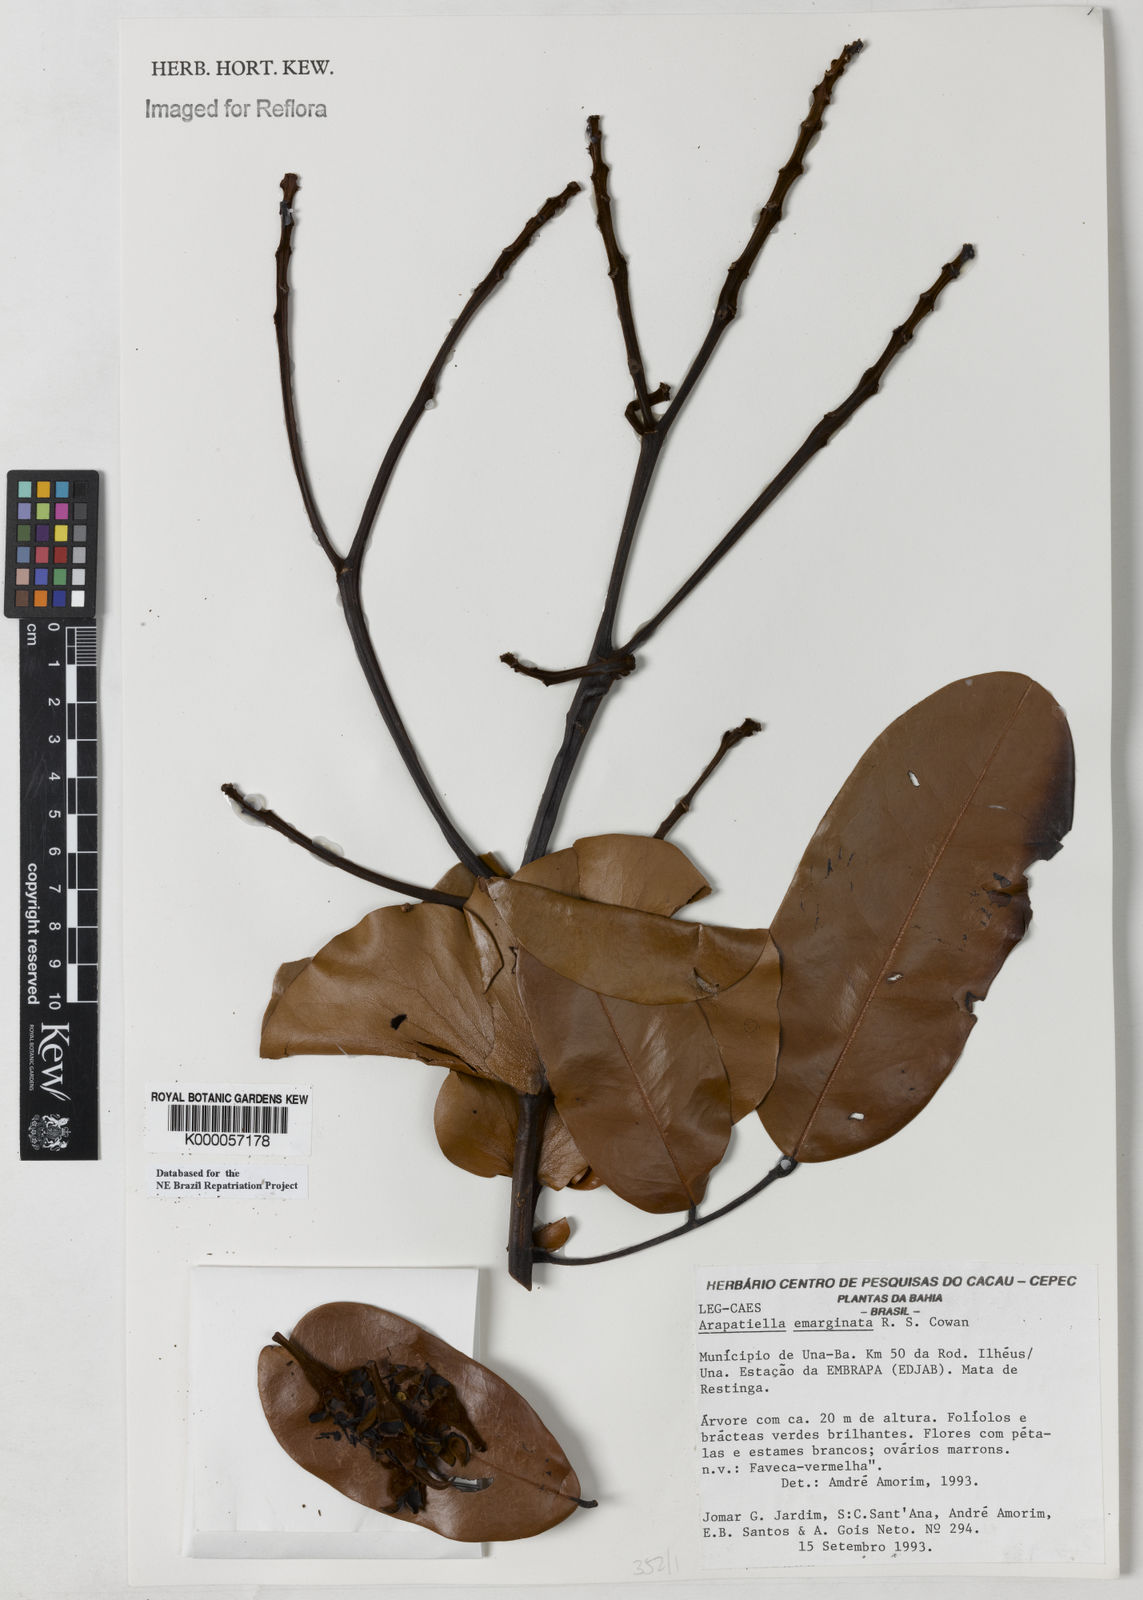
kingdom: Plantae
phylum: Tracheophyta
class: Magnoliopsida
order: Fabales
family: Fabaceae
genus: Arapatiella
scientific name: Arapatiella emarginata
